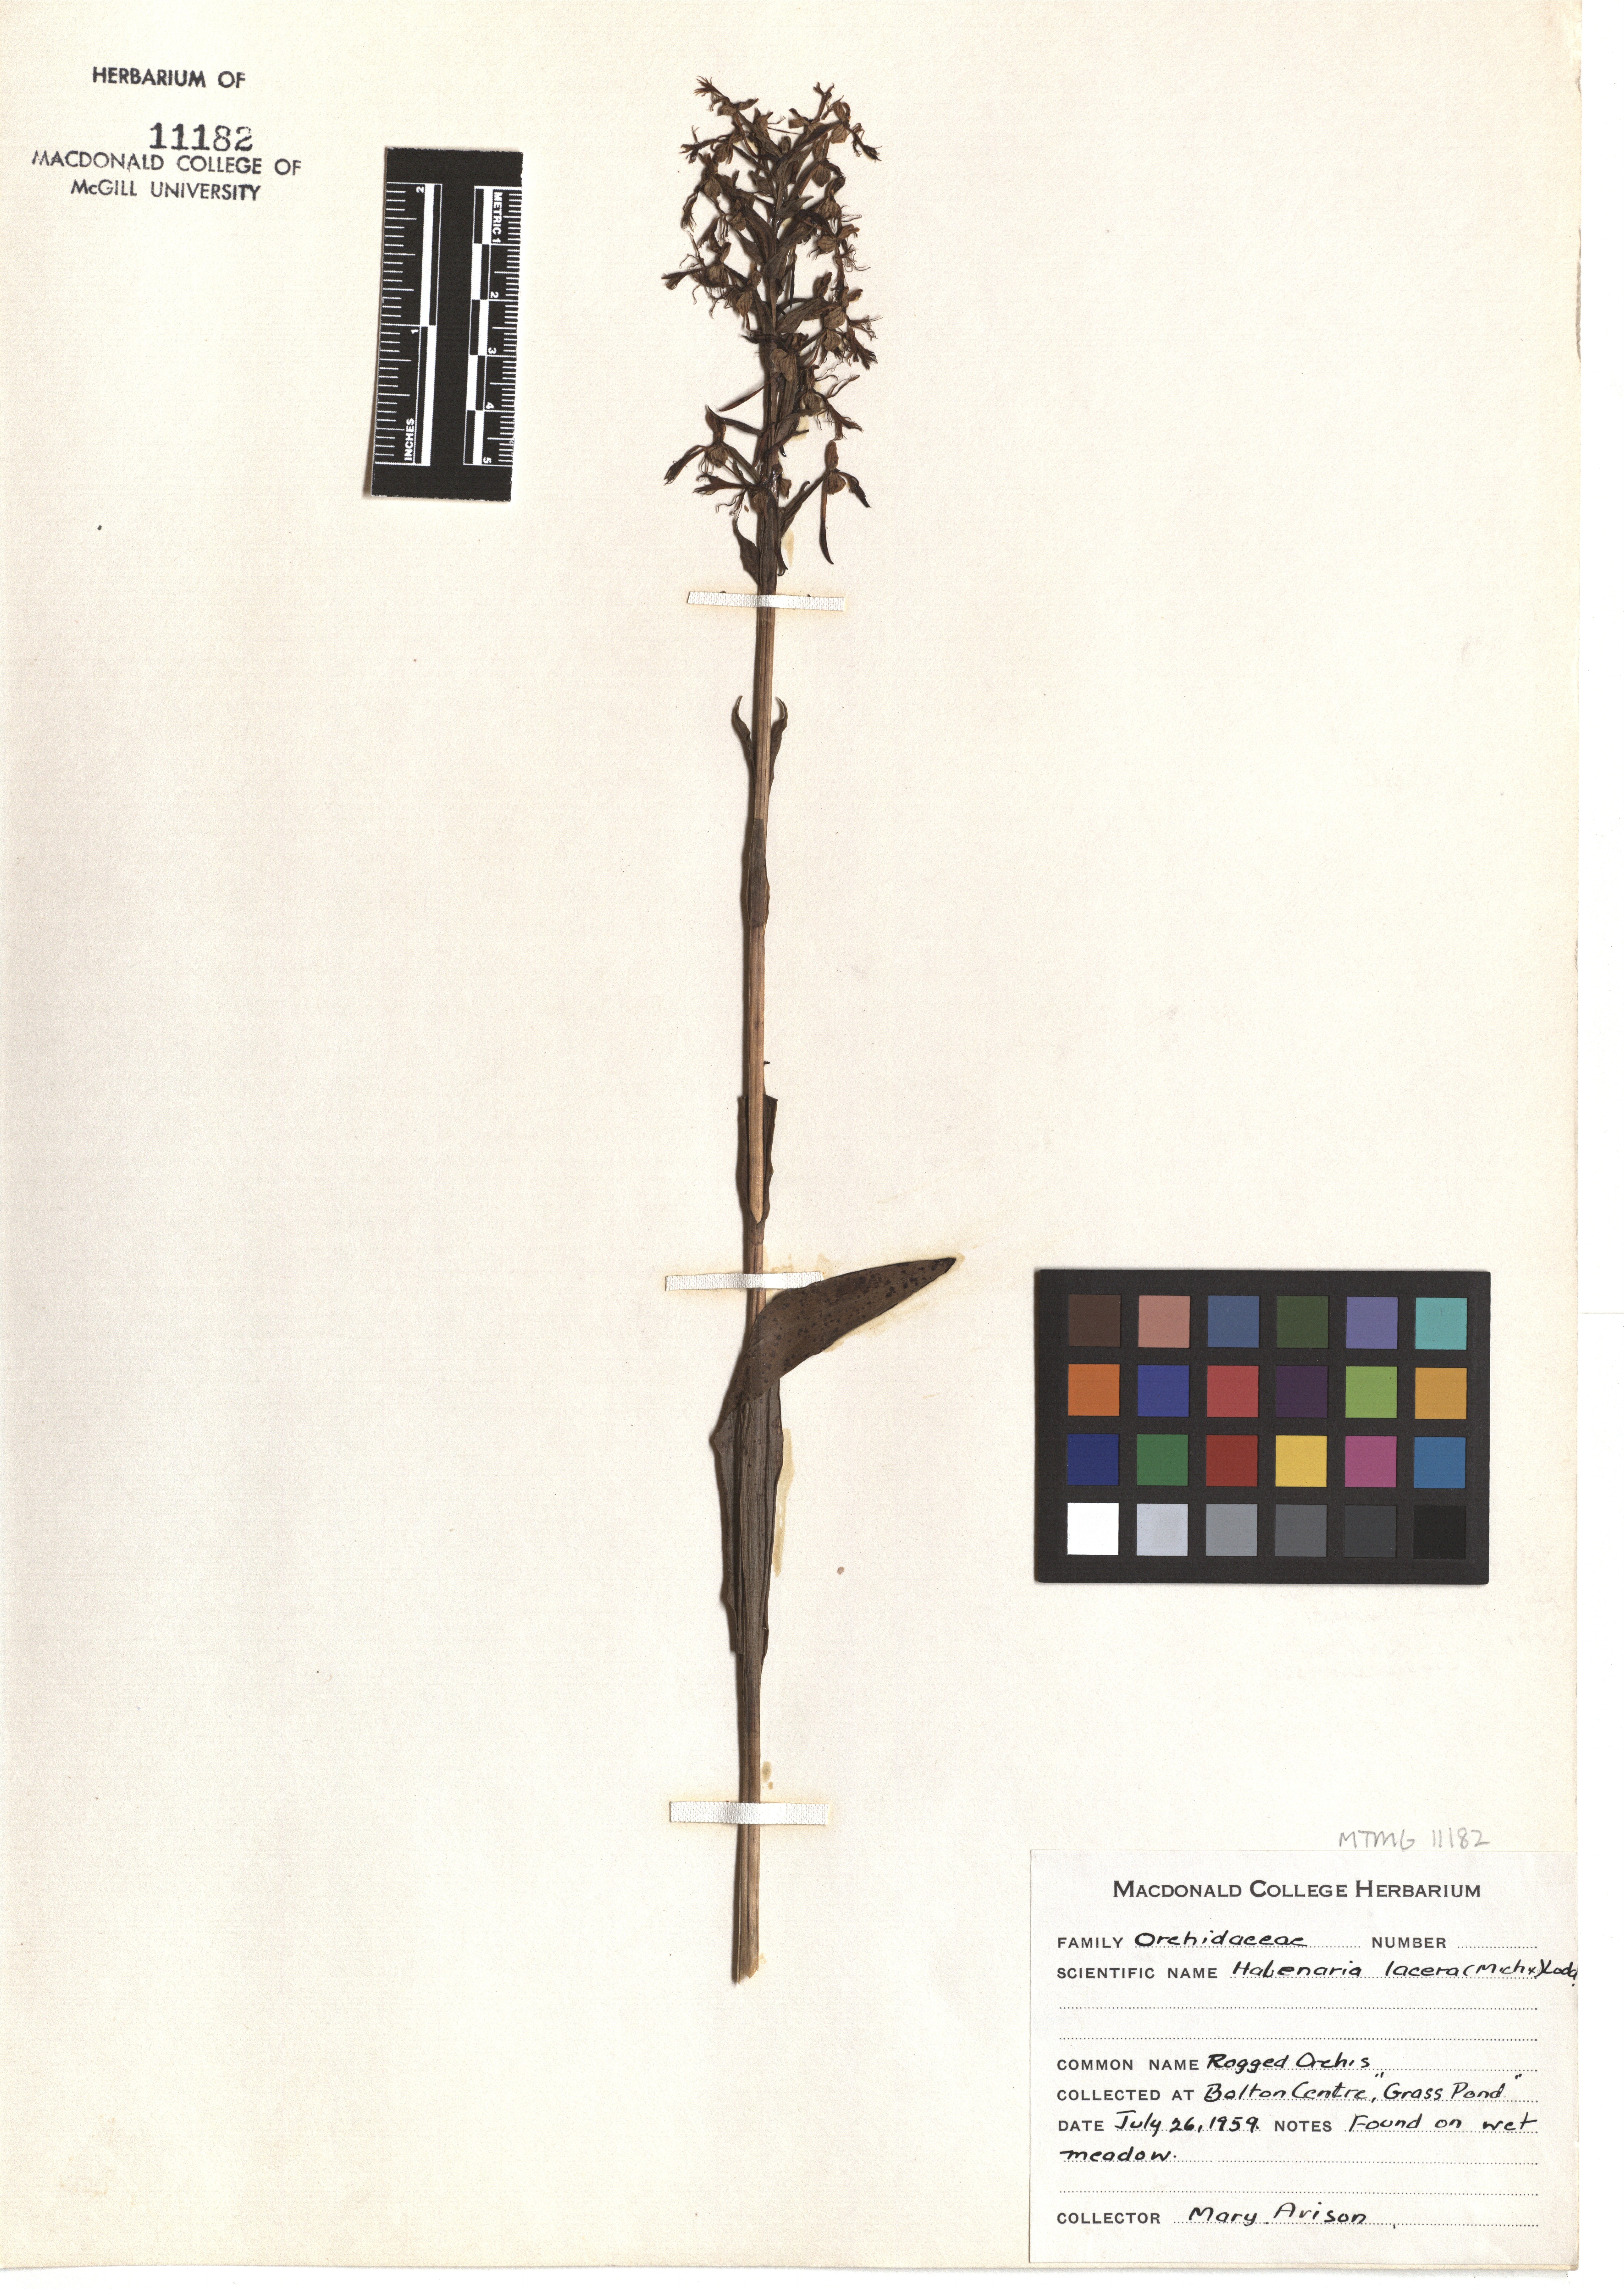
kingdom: Plantae
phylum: Tracheophyta
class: Liliopsida
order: Asparagales
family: Orchidaceae
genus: Platanthera
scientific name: Platanthera lacera
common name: Green fringed orchid
